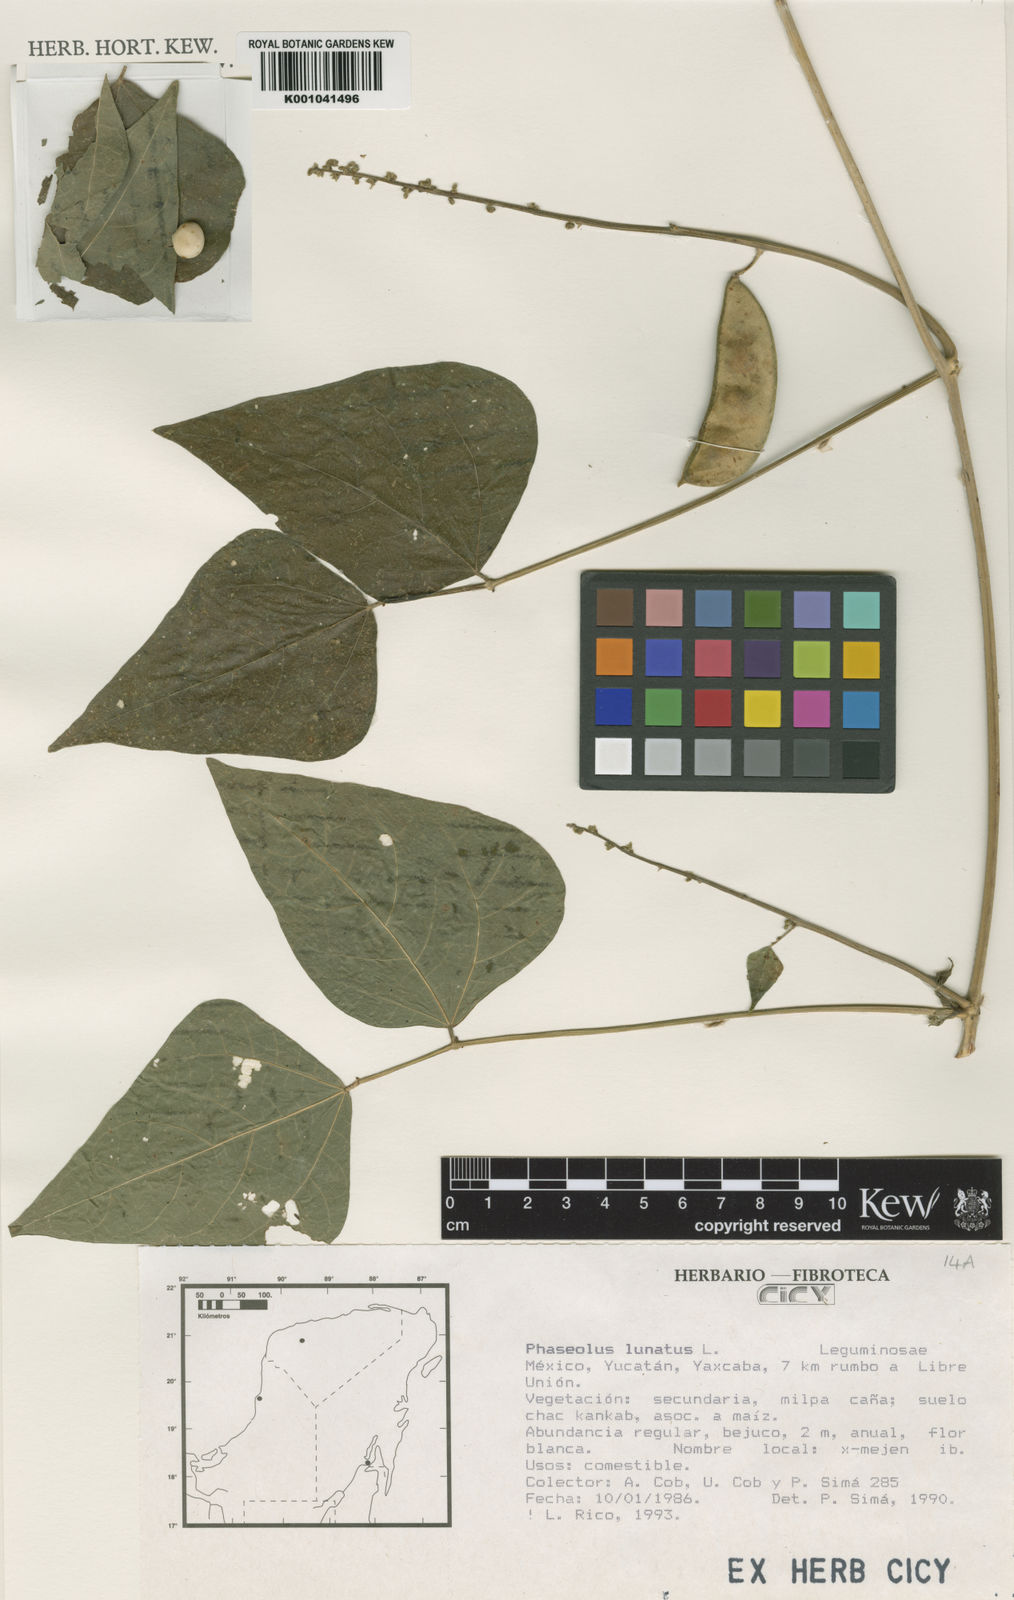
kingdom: Plantae
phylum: Tracheophyta
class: Magnoliopsida
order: Fabales
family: Fabaceae
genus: Phaseolus
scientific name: Phaseolus lunatus
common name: Sieva bean
